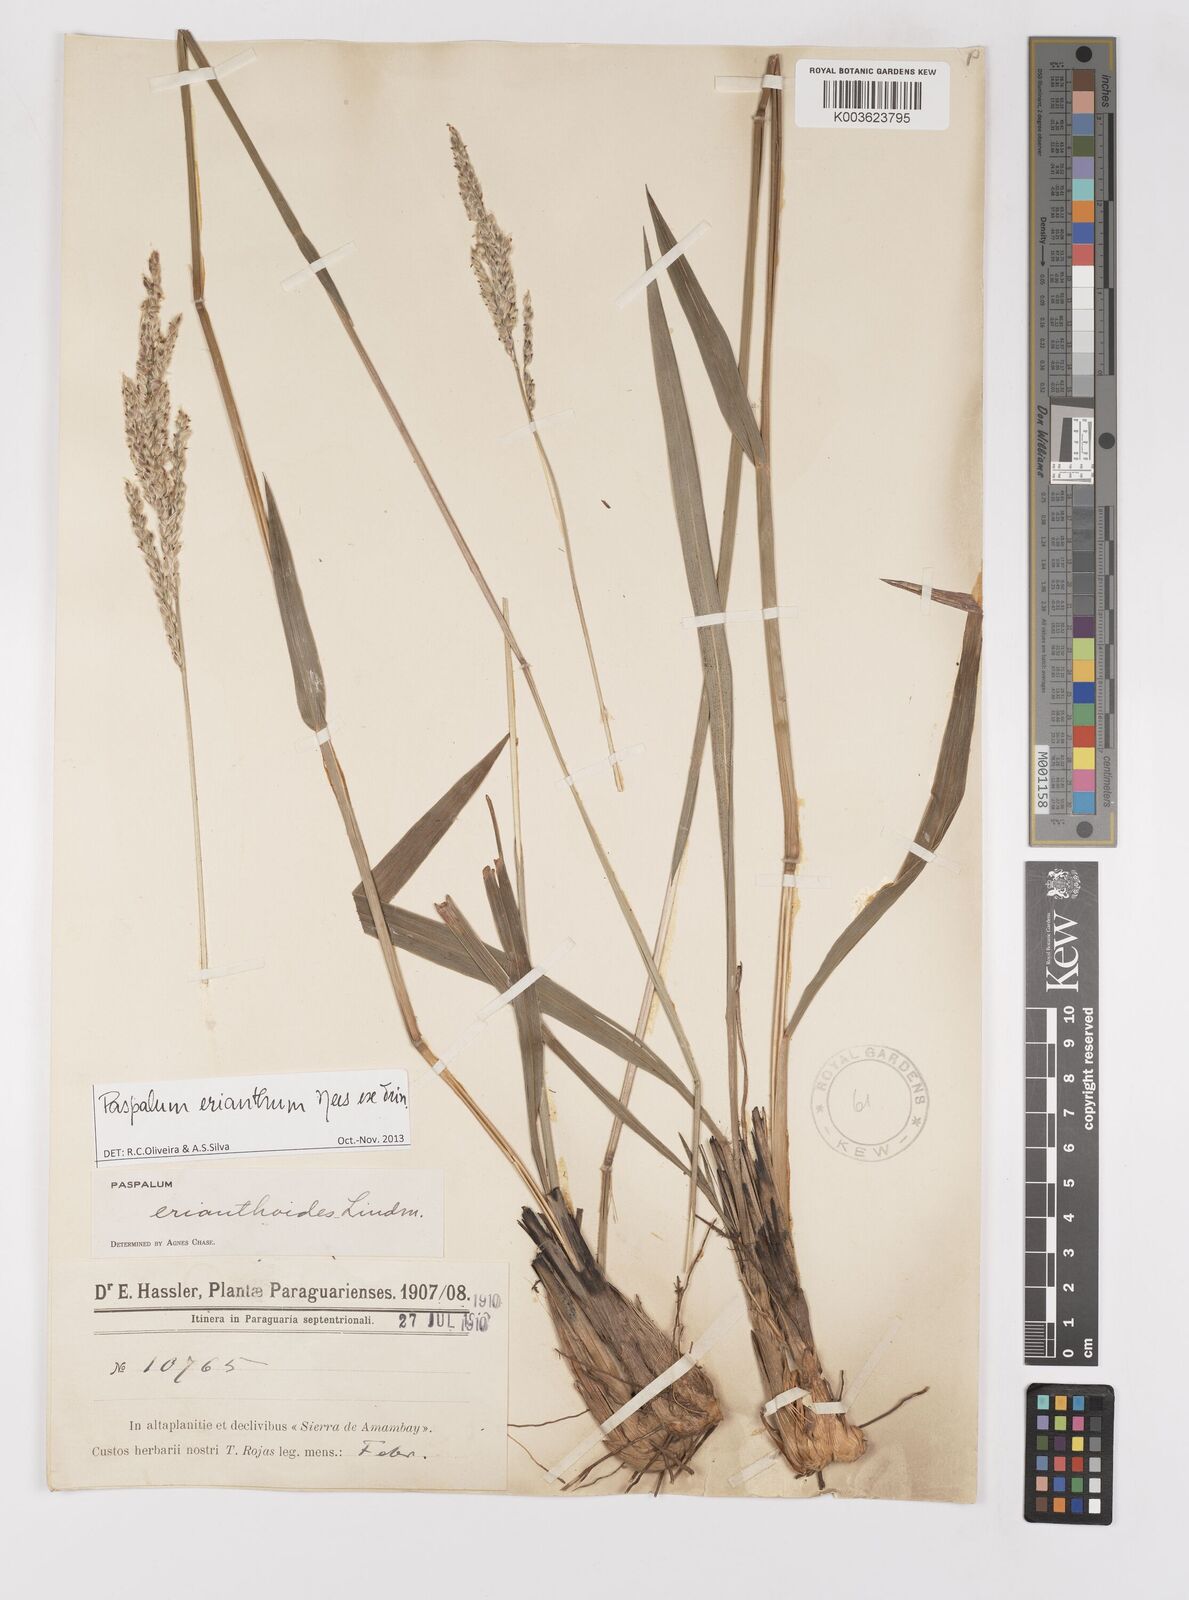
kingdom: Plantae
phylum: Tracheophyta
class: Liliopsida
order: Poales
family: Poaceae
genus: Paspalum
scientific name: Paspalum erianthum
